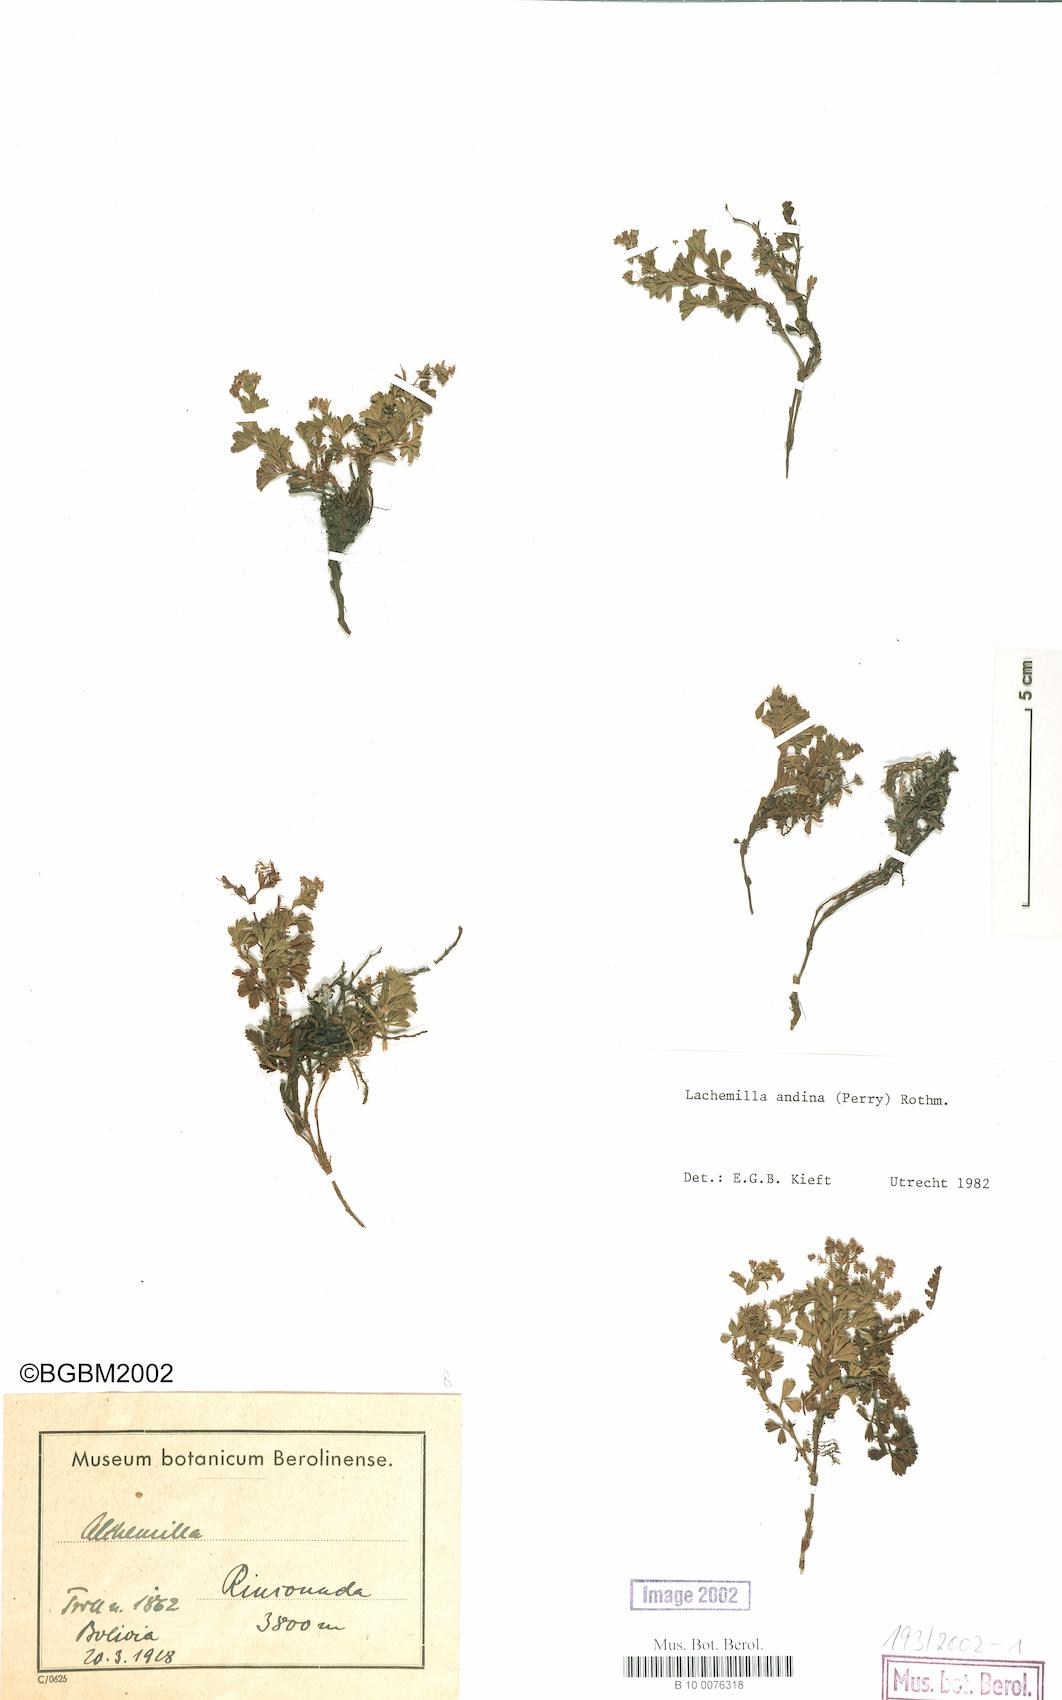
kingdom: Plantae
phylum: Tracheophyta
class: Magnoliopsida
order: Rosales
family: Rosaceae
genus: Lachemilla
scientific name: Lachemilla andina
